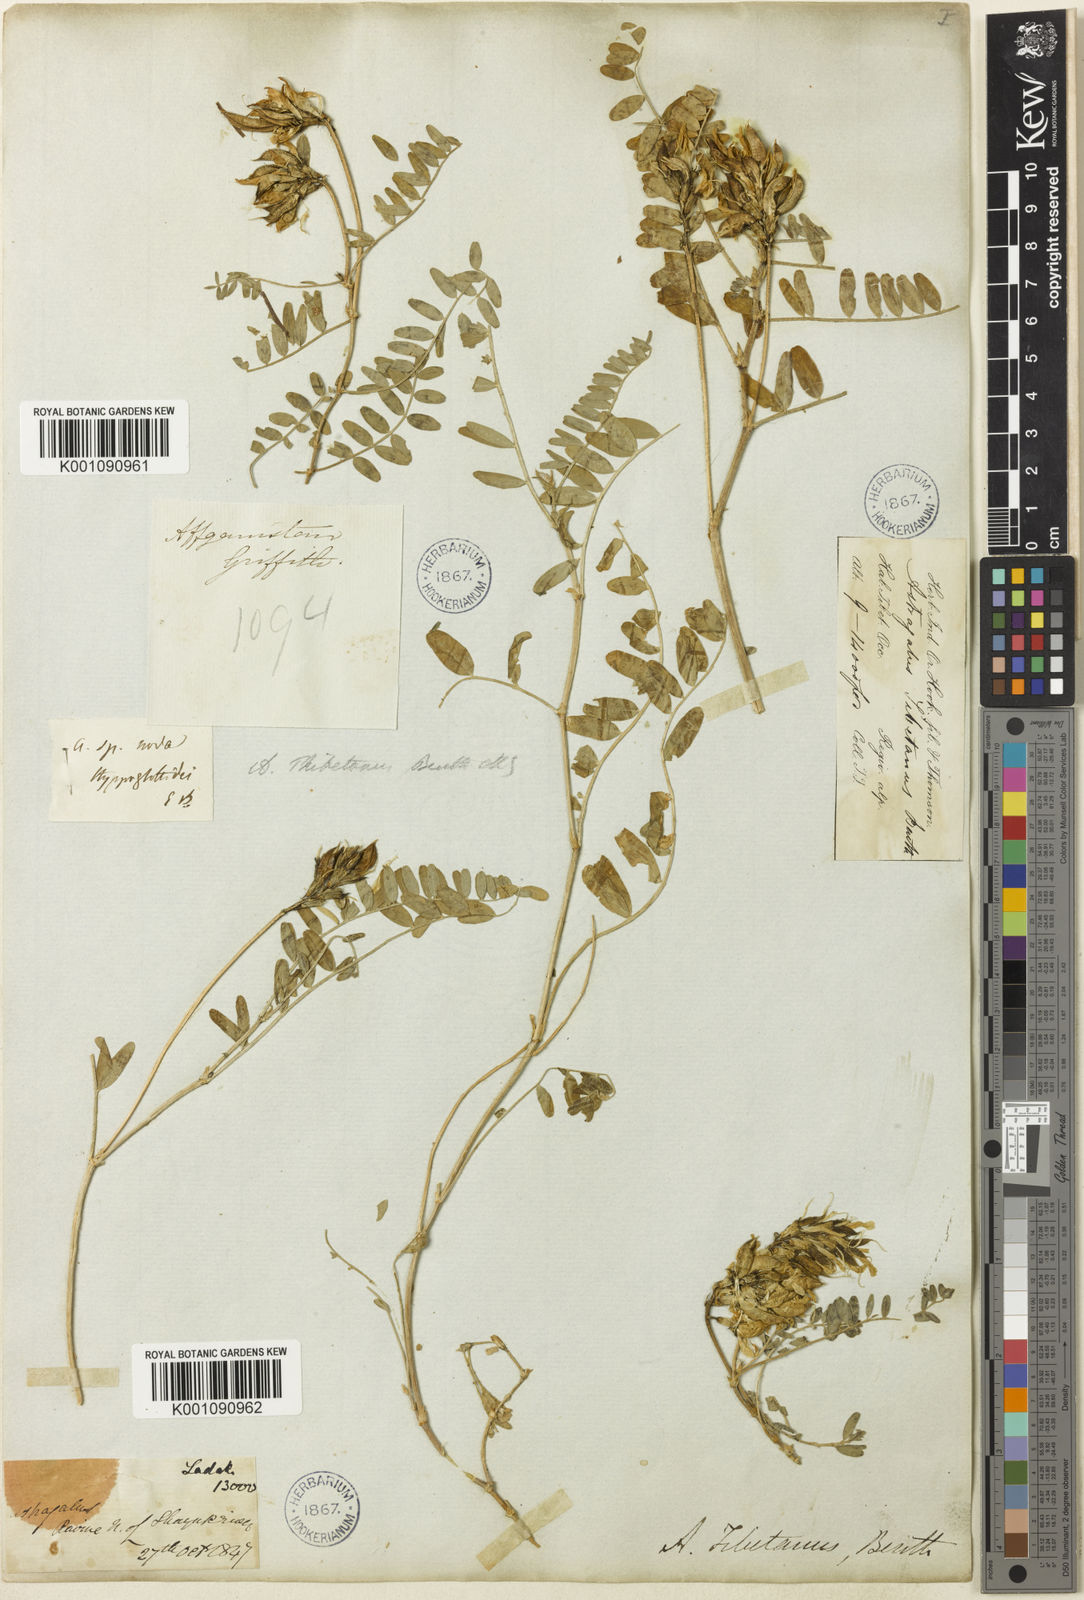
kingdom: Plantae
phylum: Tracheophyta
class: Magnoliopsida
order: Fabales
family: Fabaceae
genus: Astragalus
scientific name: Astragalus
